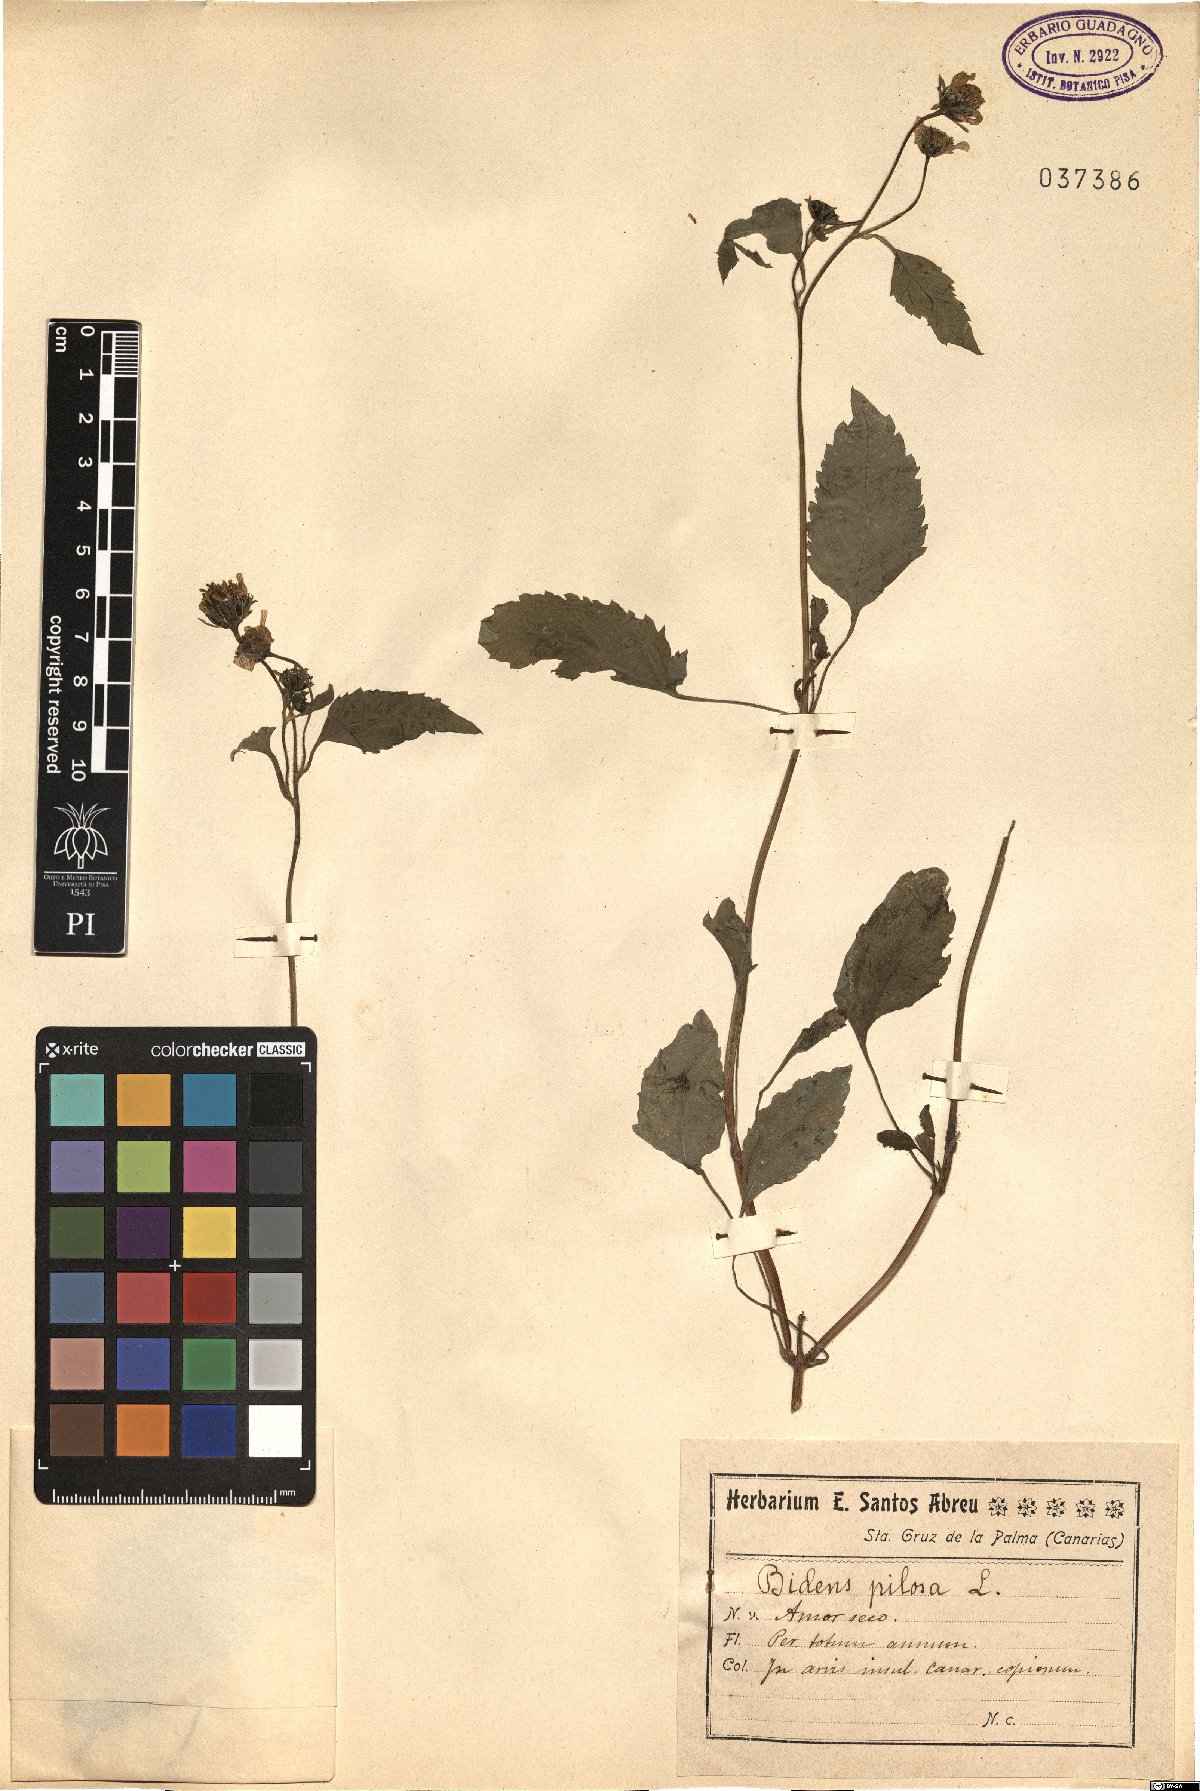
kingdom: Plantae
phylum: Tracheophyta
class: Magnoliopsida
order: Asterales
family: Asteraceae
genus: Bidens
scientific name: Bidens pilosa
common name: Black-jack
